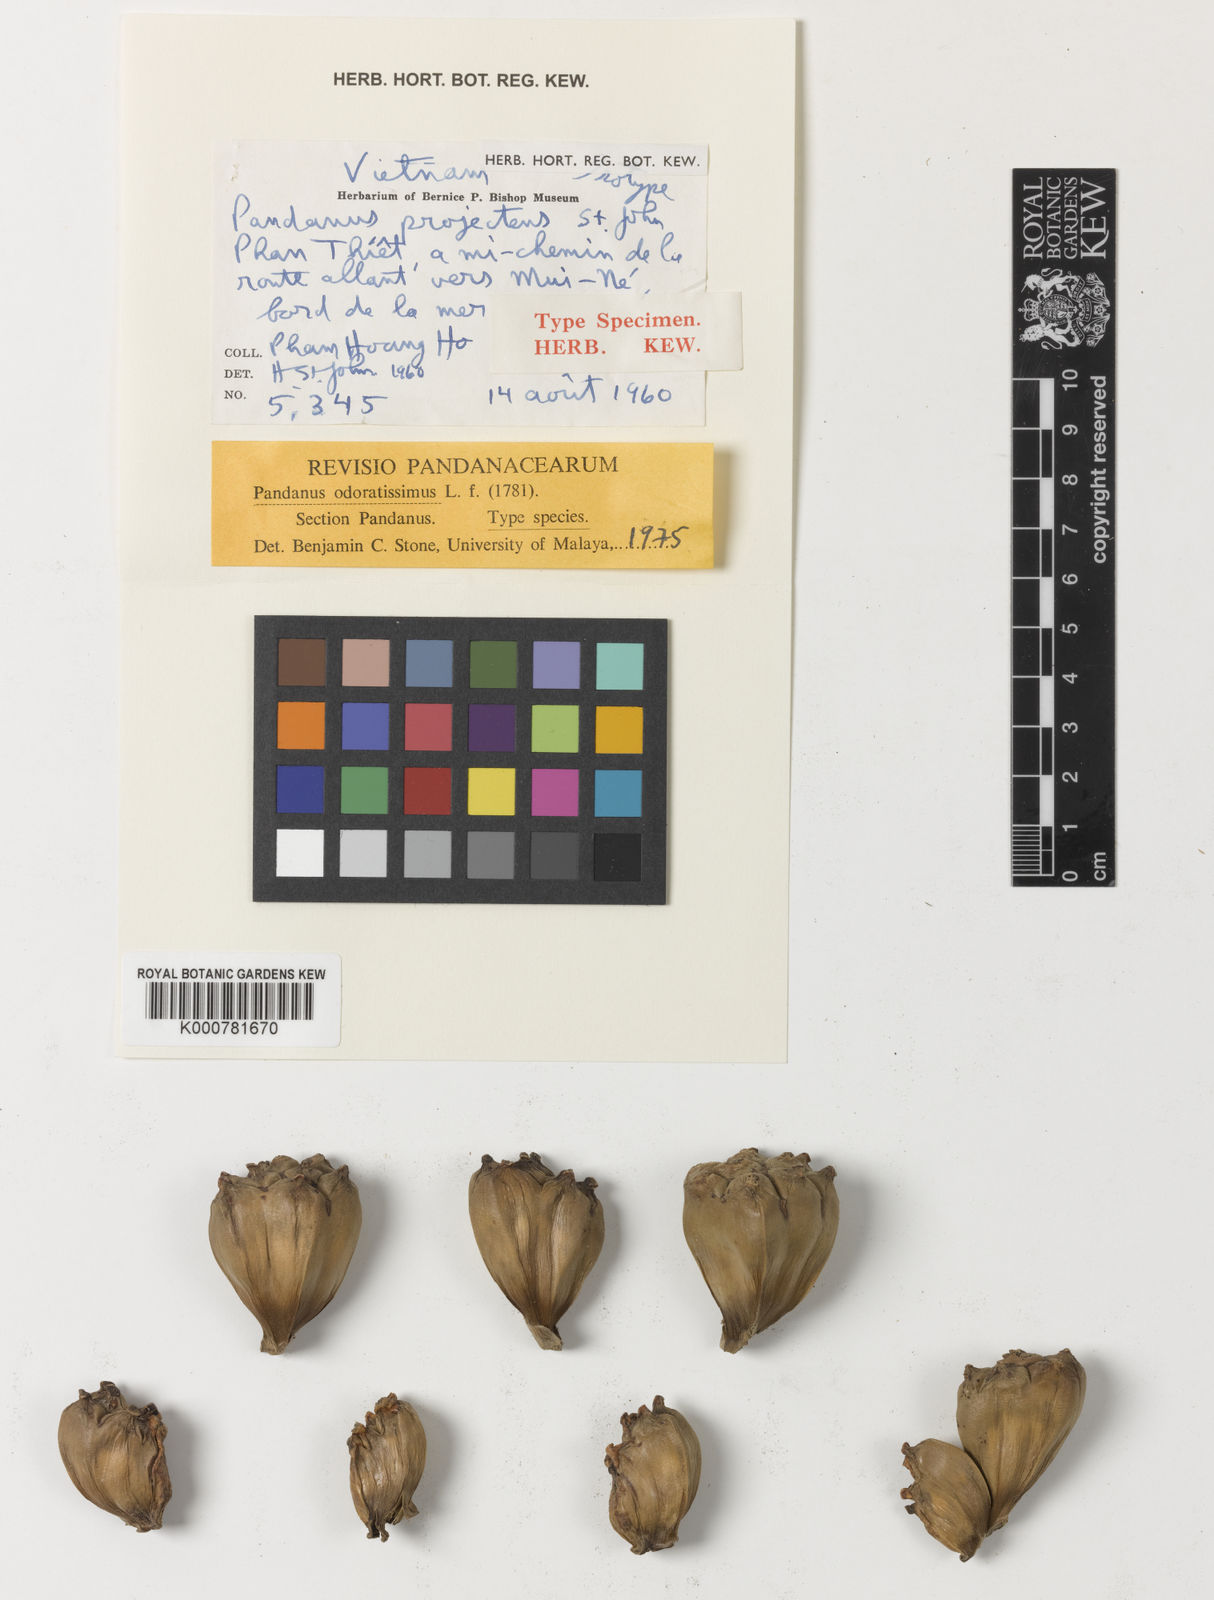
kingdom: Plantae
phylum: Tracheophyta
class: Liliopsida
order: Pandanales
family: Pandanaceae
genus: Pandanus
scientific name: Pandanus odorifer
